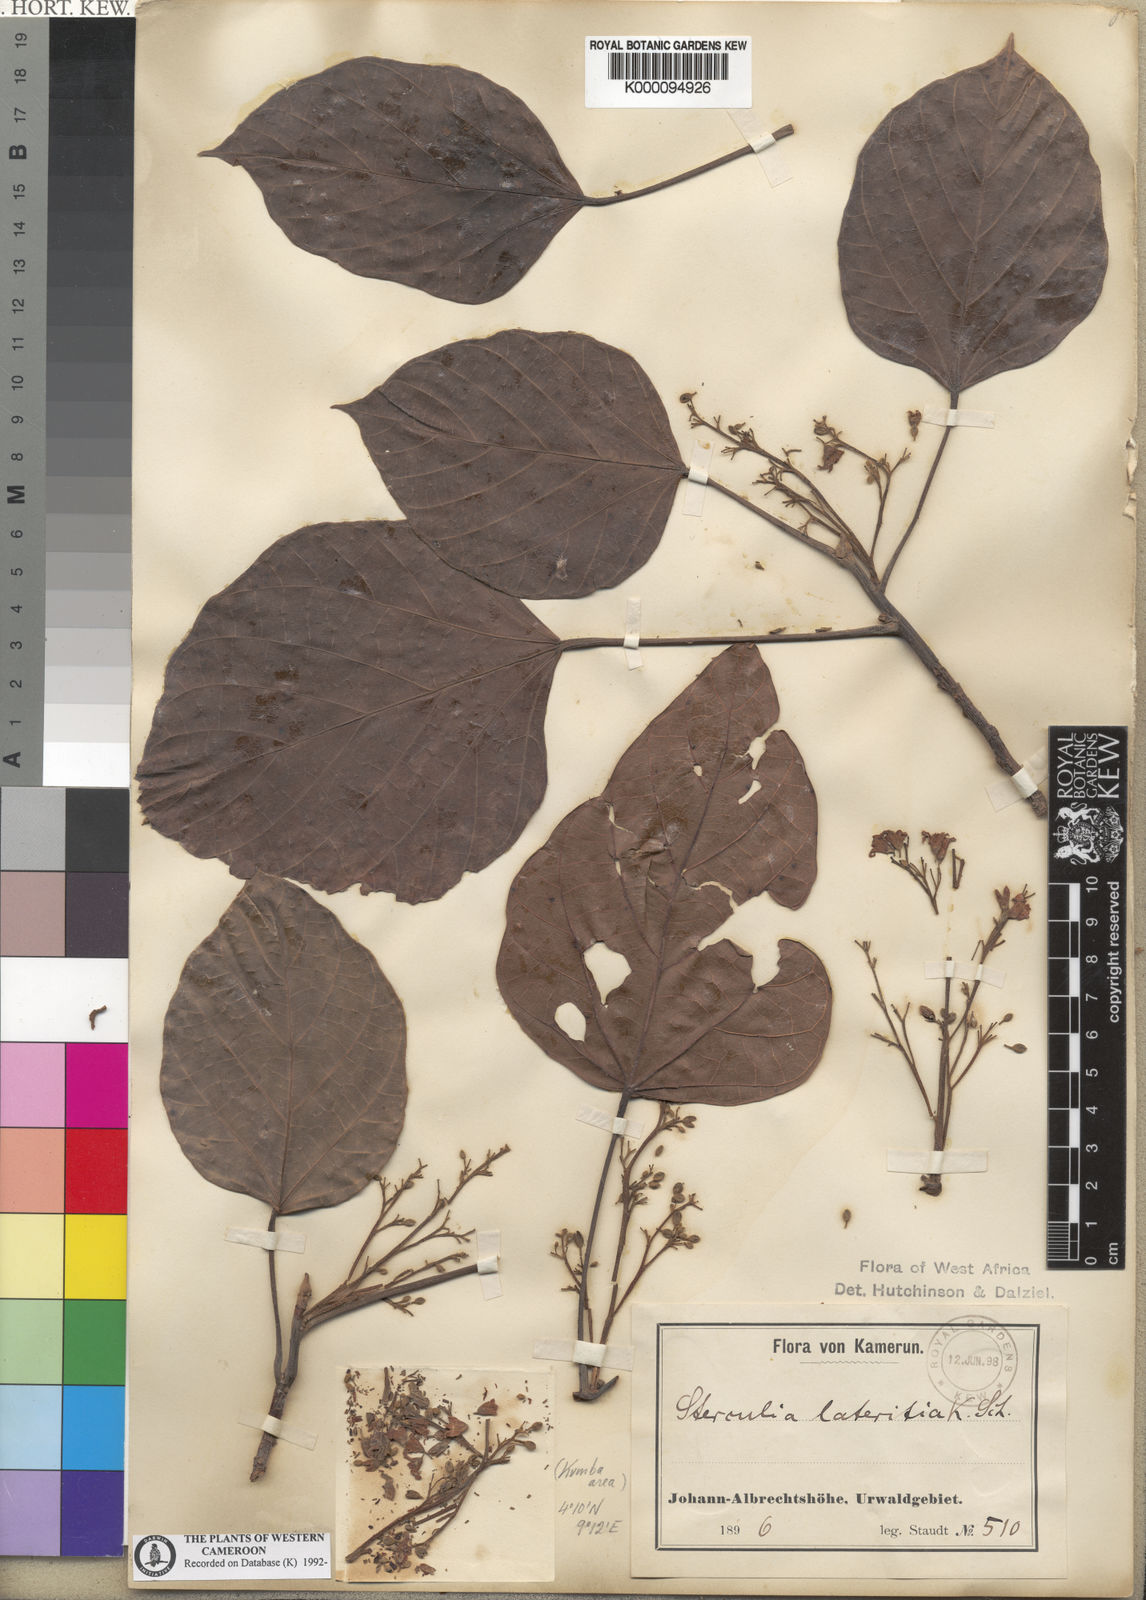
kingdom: Plantae
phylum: Tracheophyta
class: Magnoliopsida
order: Malvales
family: Malvaceae
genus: Cola
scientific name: Cola lateritia
